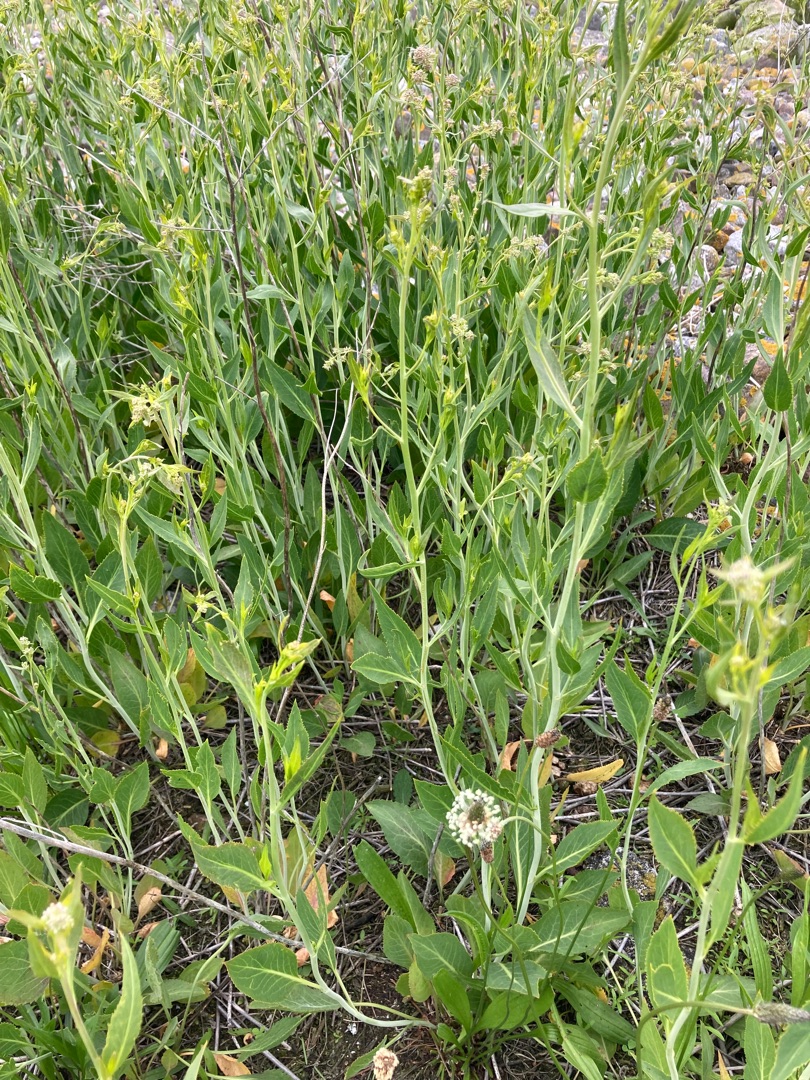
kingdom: Plantae
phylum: Tracheophyta
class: Magnoliopsida
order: Brassicales
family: Brassicaceae
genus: Lepidium
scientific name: Lepidium latifolium
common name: Strand-karse
